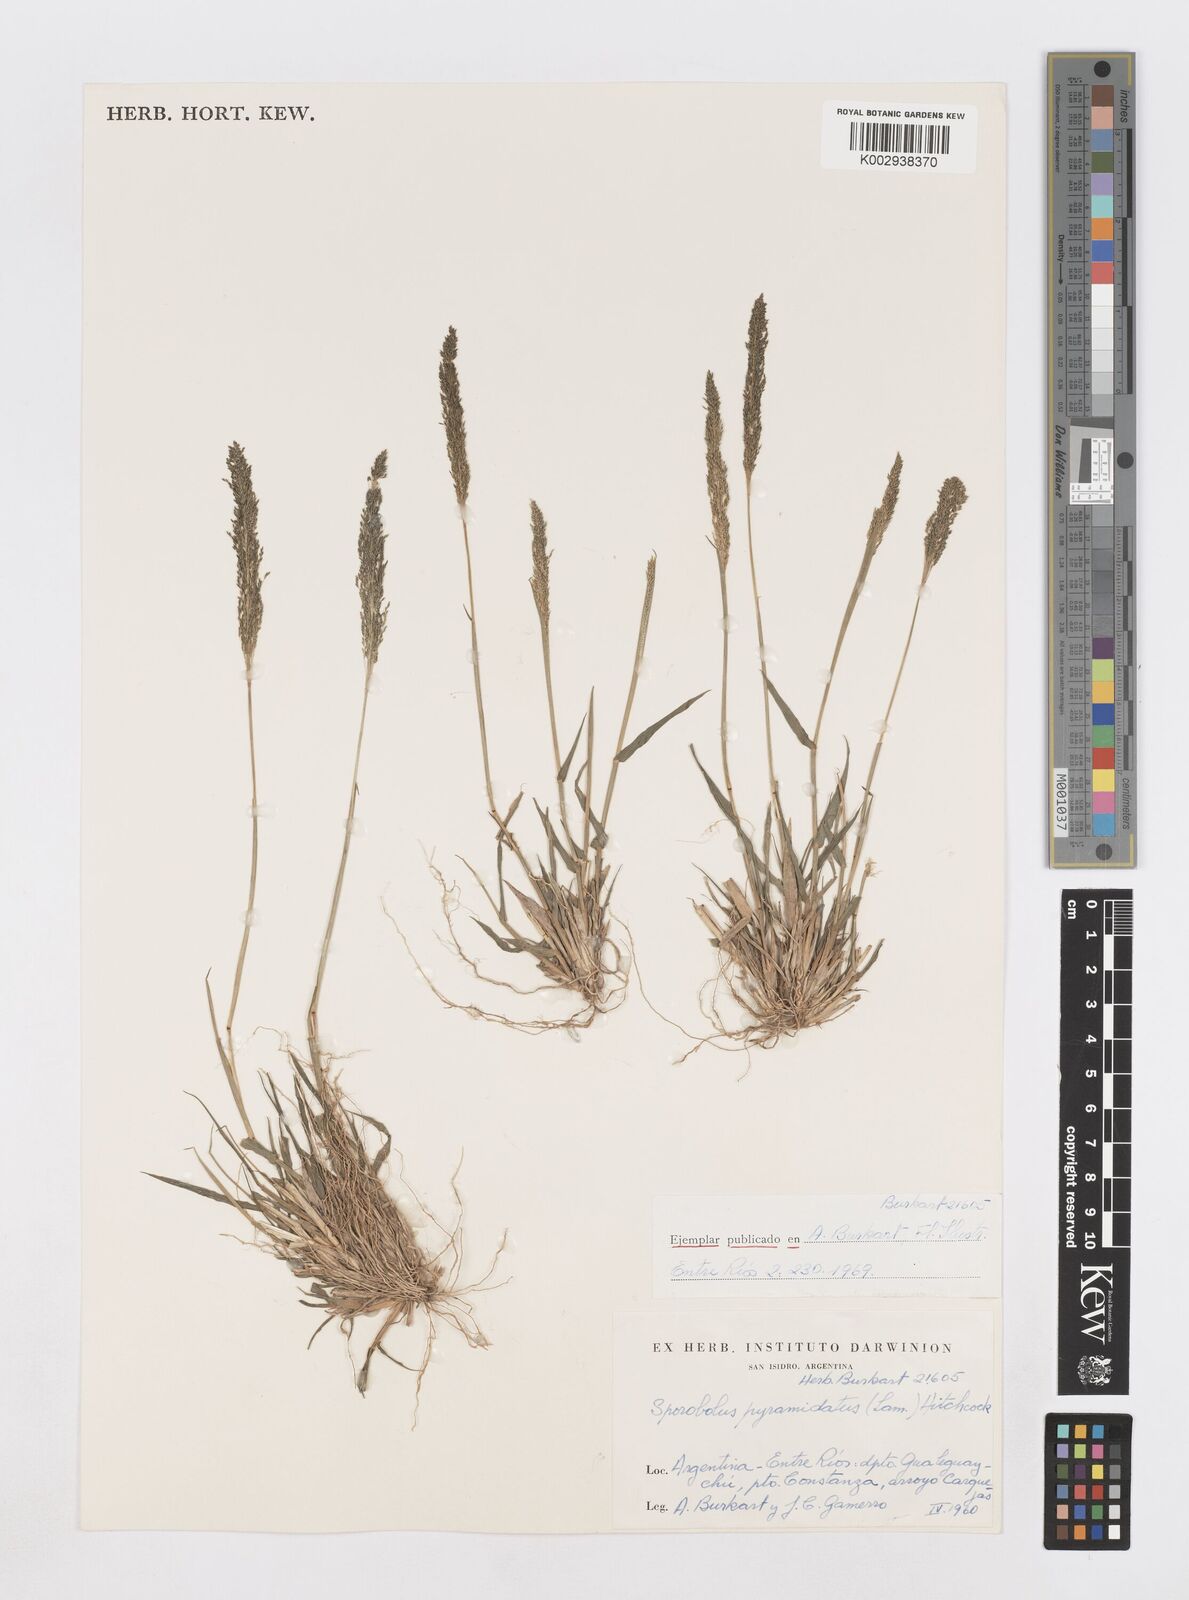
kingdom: Plantae
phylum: Tracheophyta
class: Liliopsida
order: Poales
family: Poaceae
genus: Sporobolus
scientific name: Sporobolus pyramidatus
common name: Whorled dropseed
